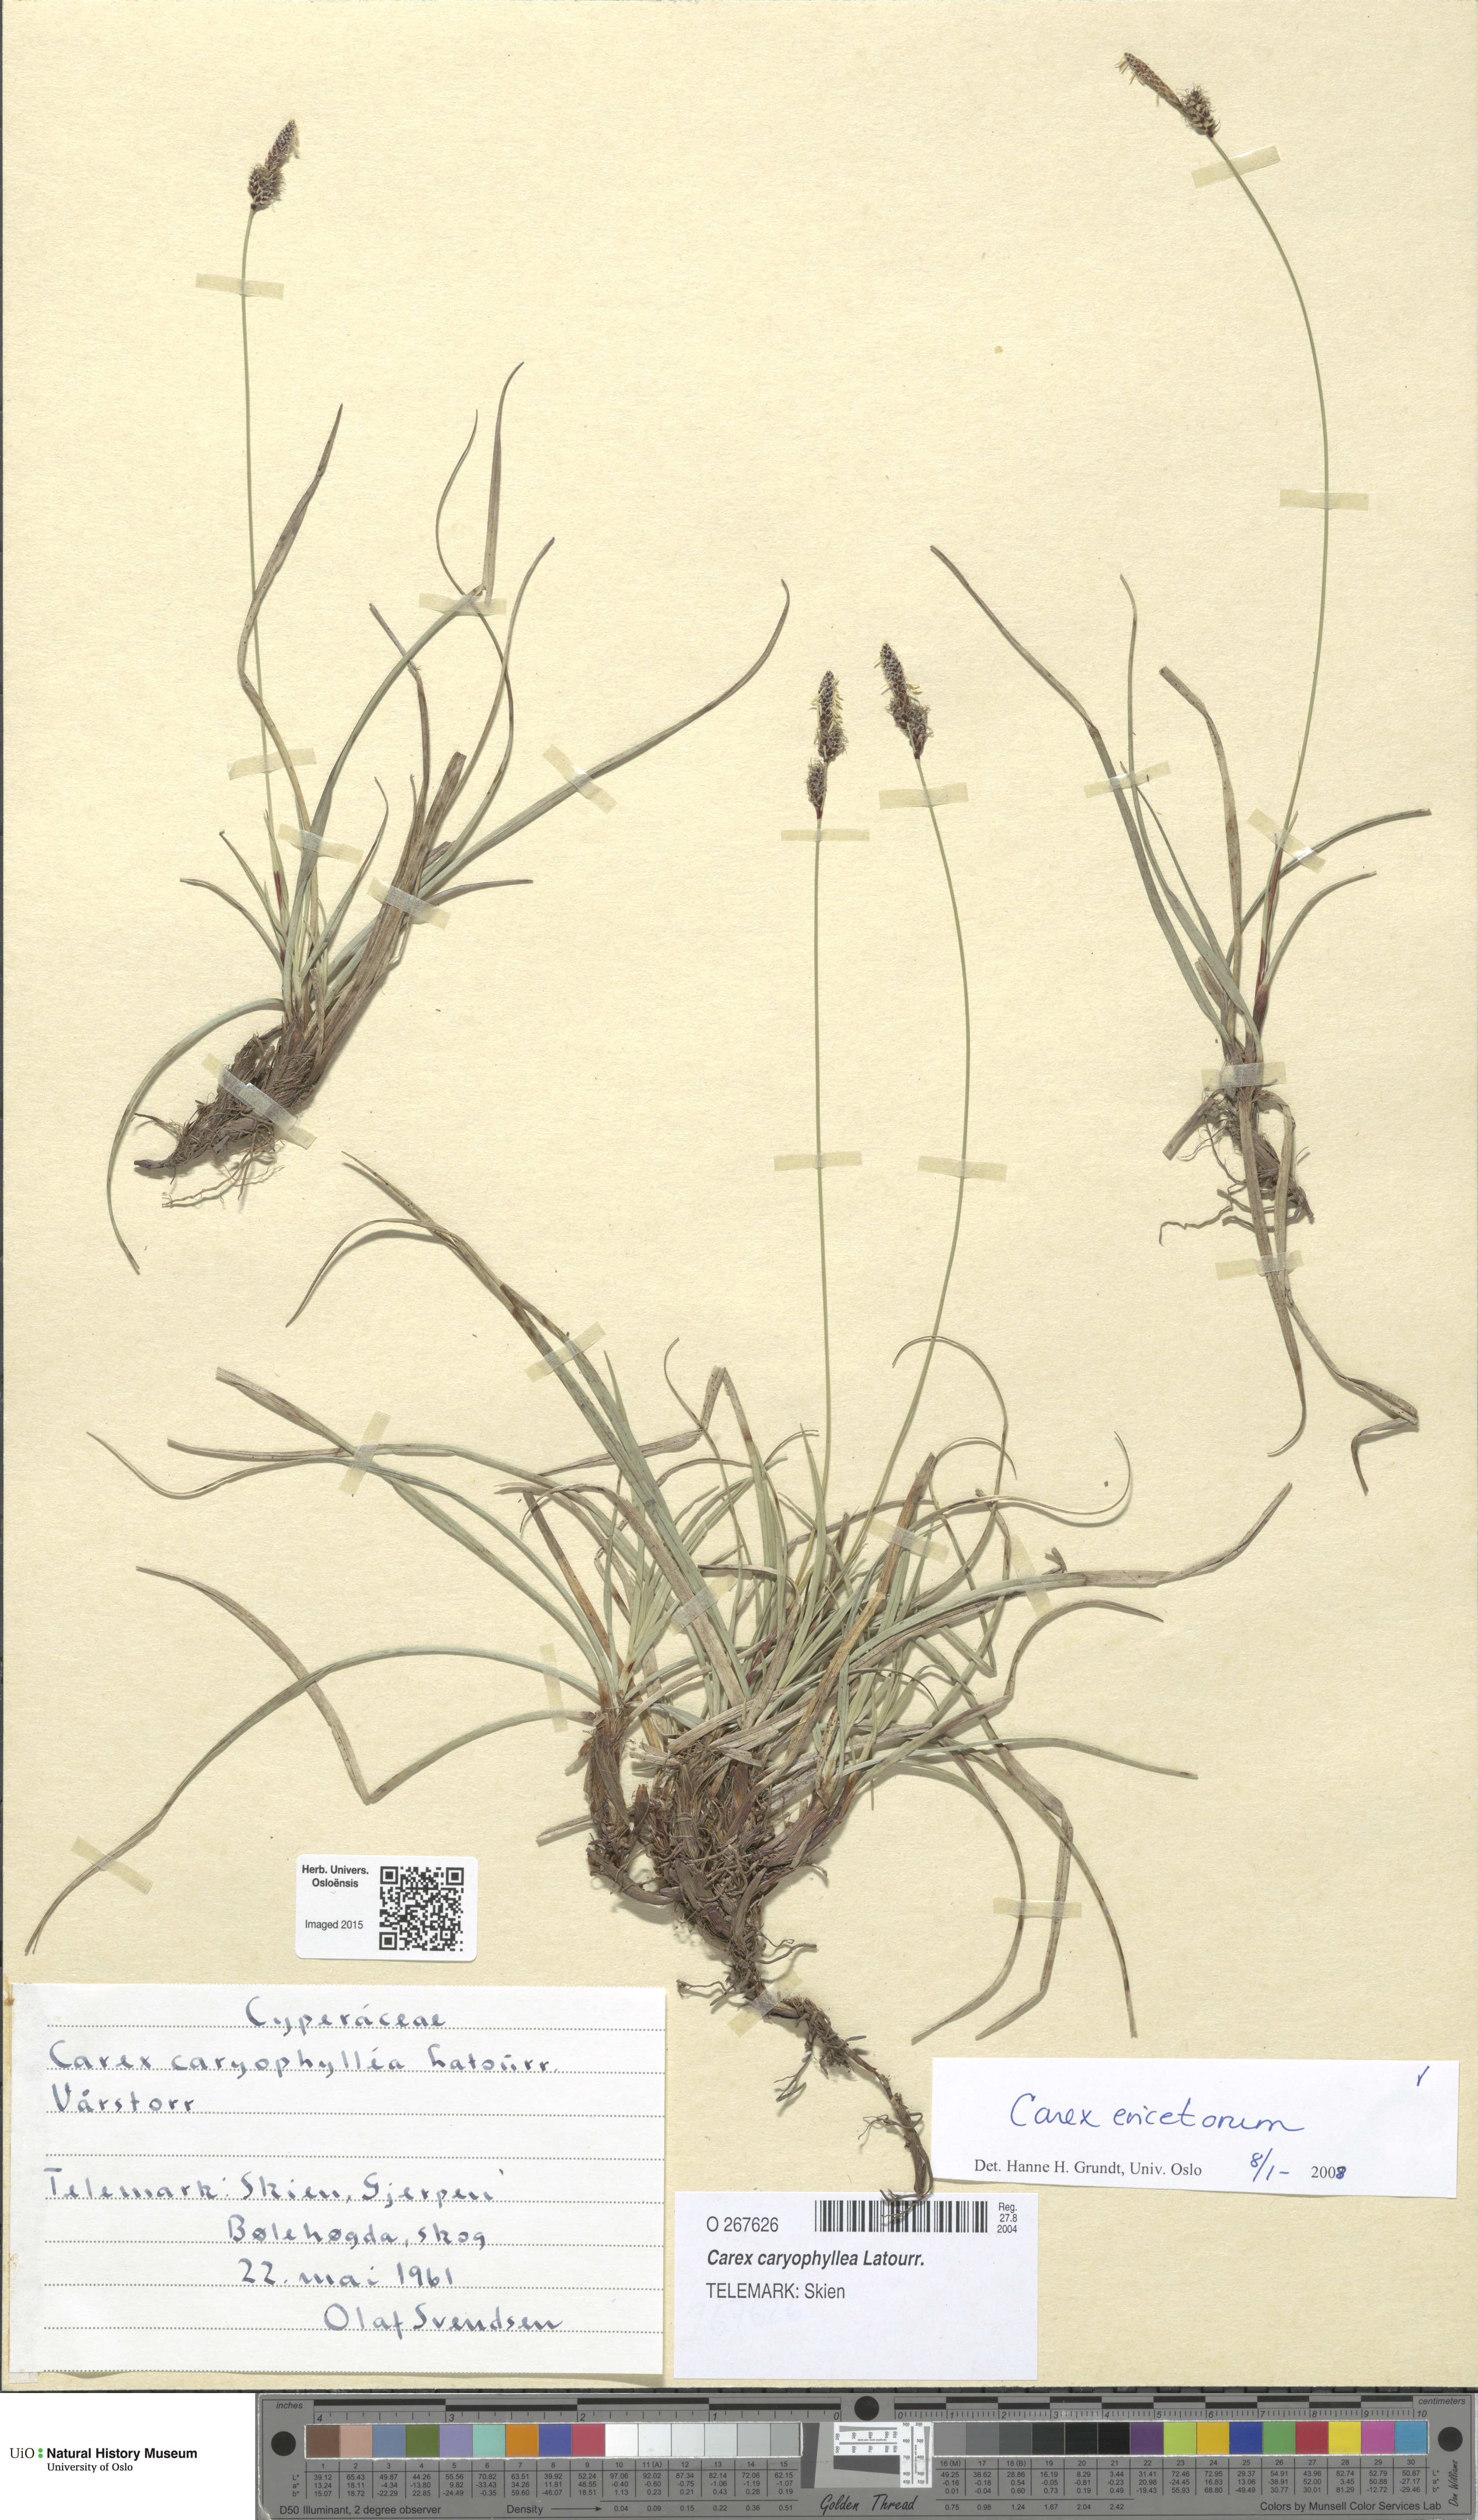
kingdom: Plantae
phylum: Tracheophyta
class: Liliopsida
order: Poales
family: Cyperaceae
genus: Carex
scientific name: Carex ericetorum
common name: Rare spring-sedge
